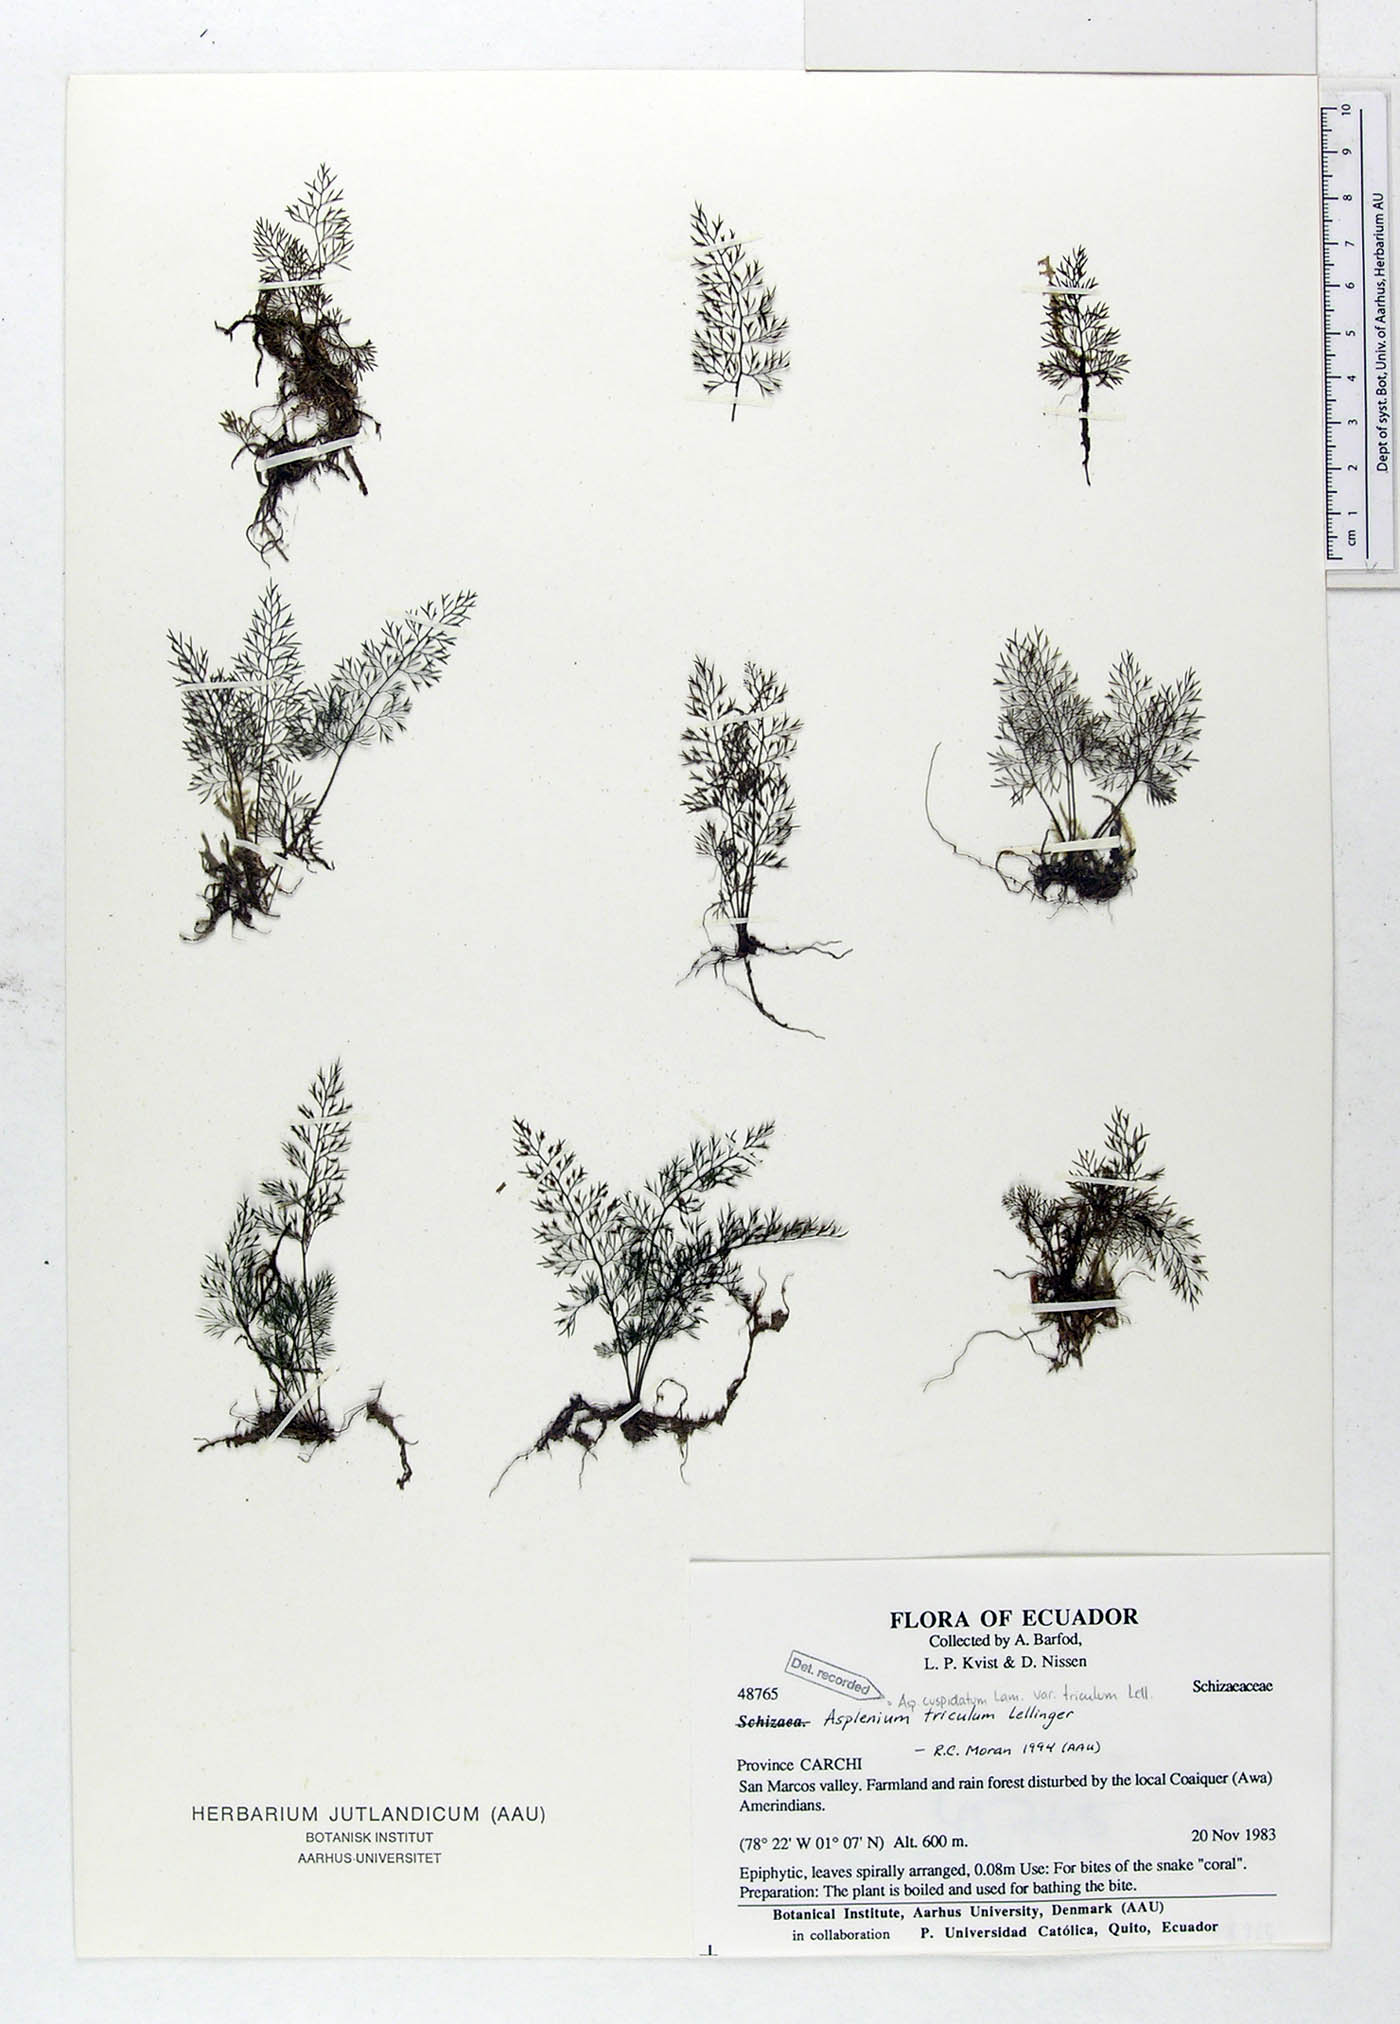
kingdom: Plantae
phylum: Tracheophyta
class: Polypodiopsida
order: Polypodiales
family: Aspleniaceae
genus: Asplenium
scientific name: Asplenium cuspidatum
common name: Eared spleenwort
